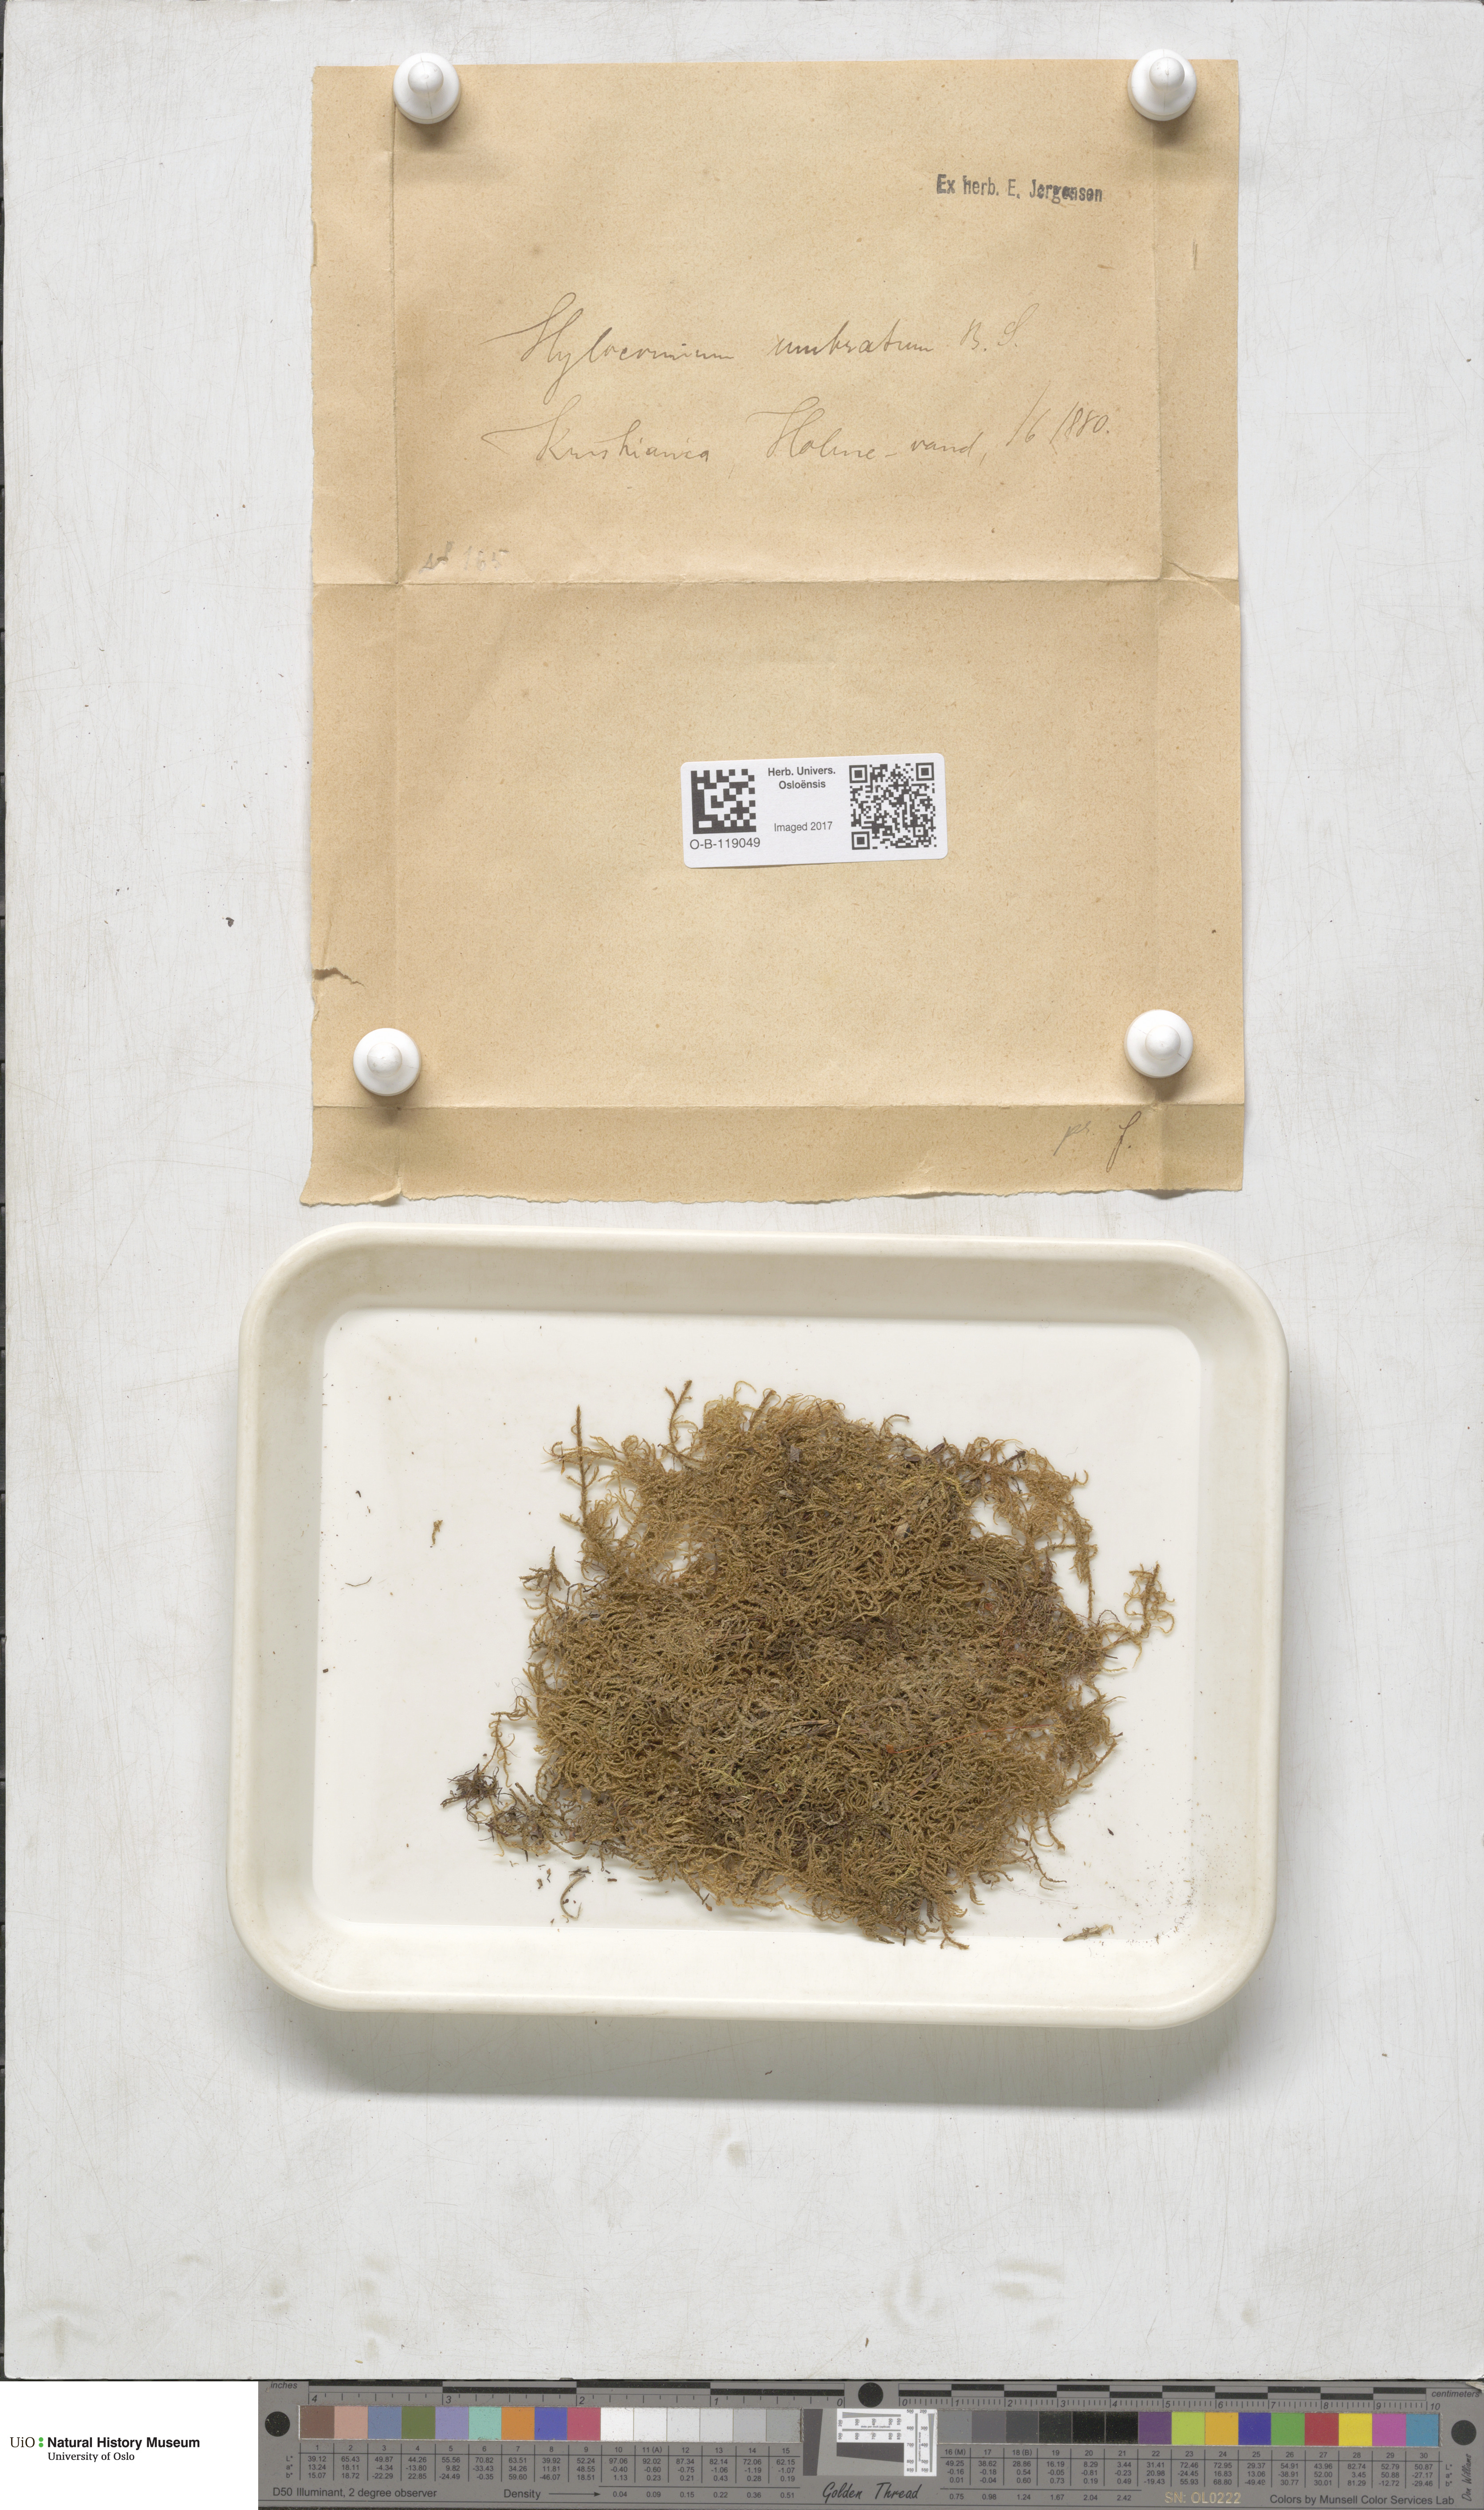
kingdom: Plantae
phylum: Bryophyta
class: Bryopsida
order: Hypnales
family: Hylocomiaceae
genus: Hylocomiastrum
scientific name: Hylocomiastrum umbratum
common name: Shaded woods moss
